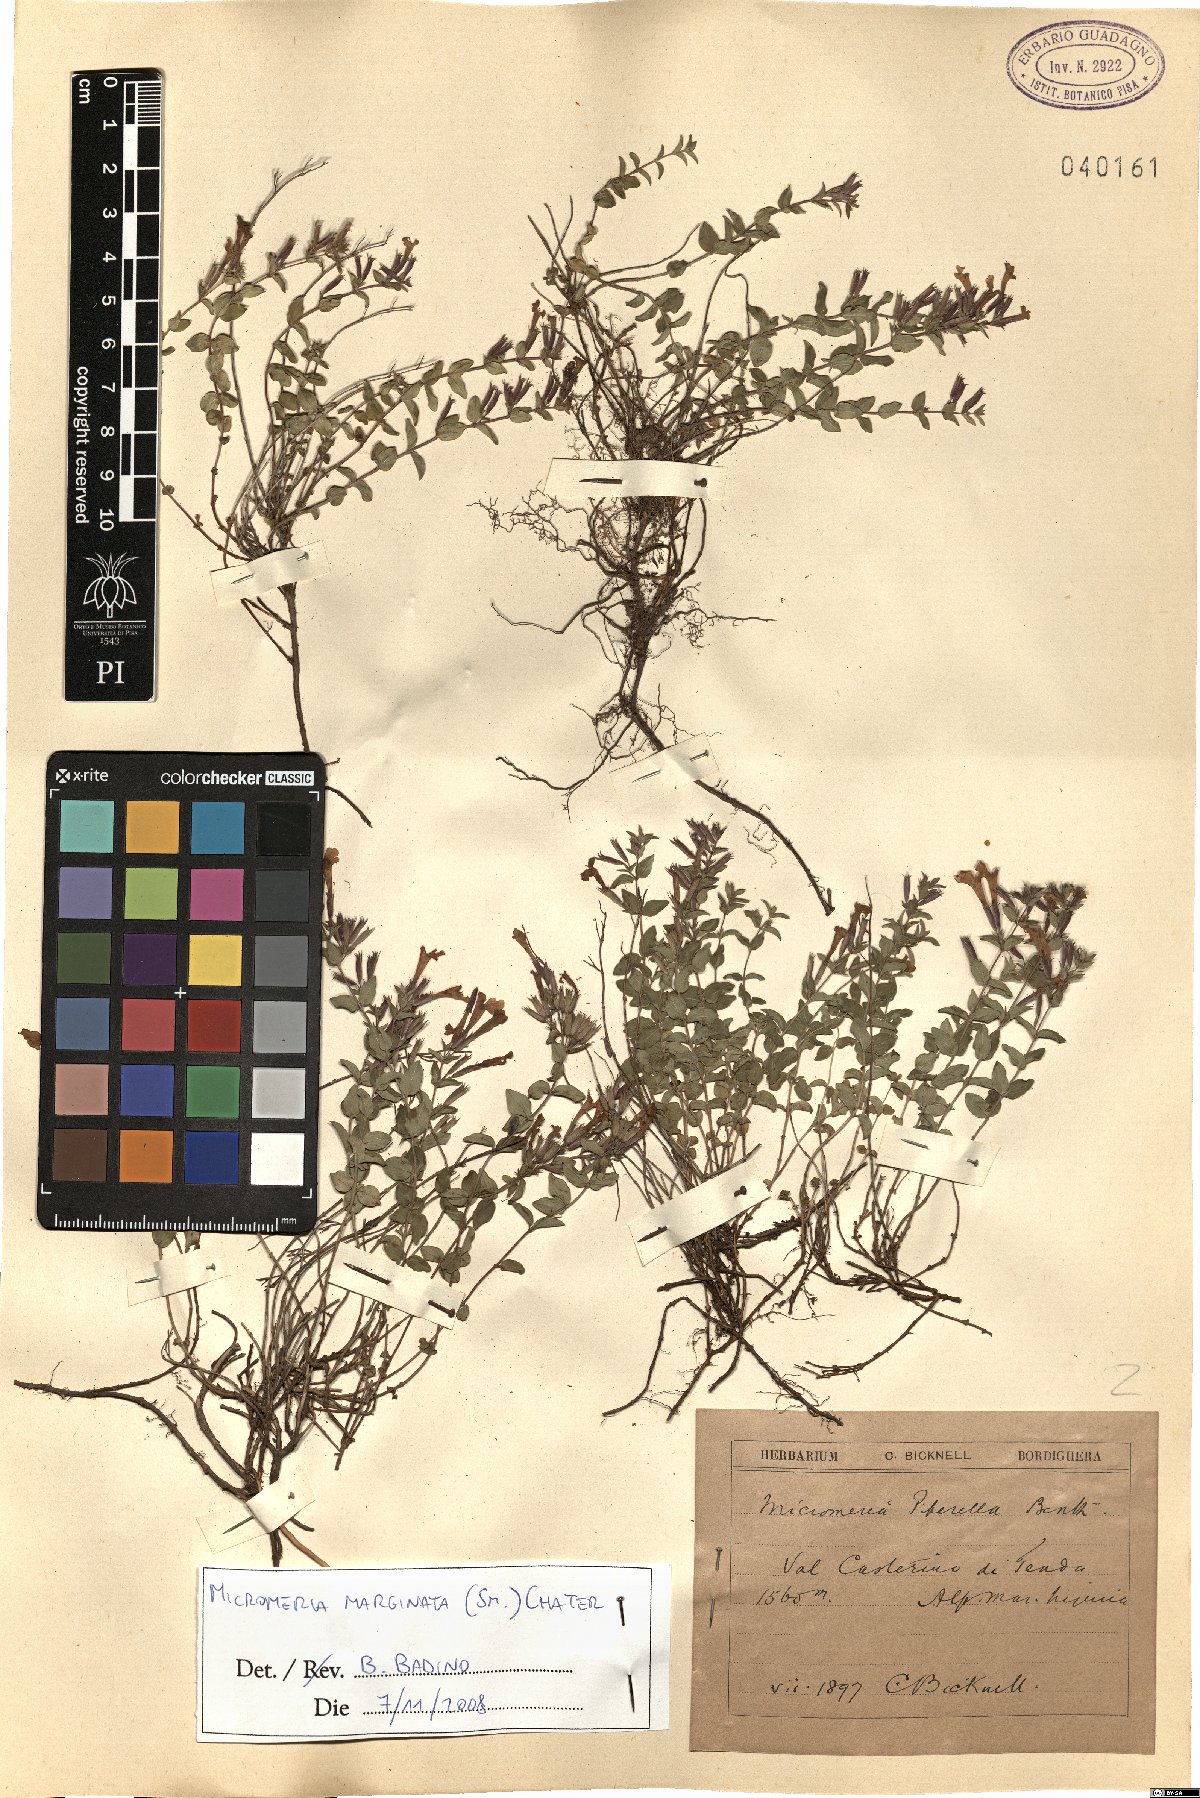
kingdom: Plantae
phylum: Tracheophyta
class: Magnoliopsida
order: Lamiales
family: Lamiaceae
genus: Micromeria
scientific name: Micromeria marginata
